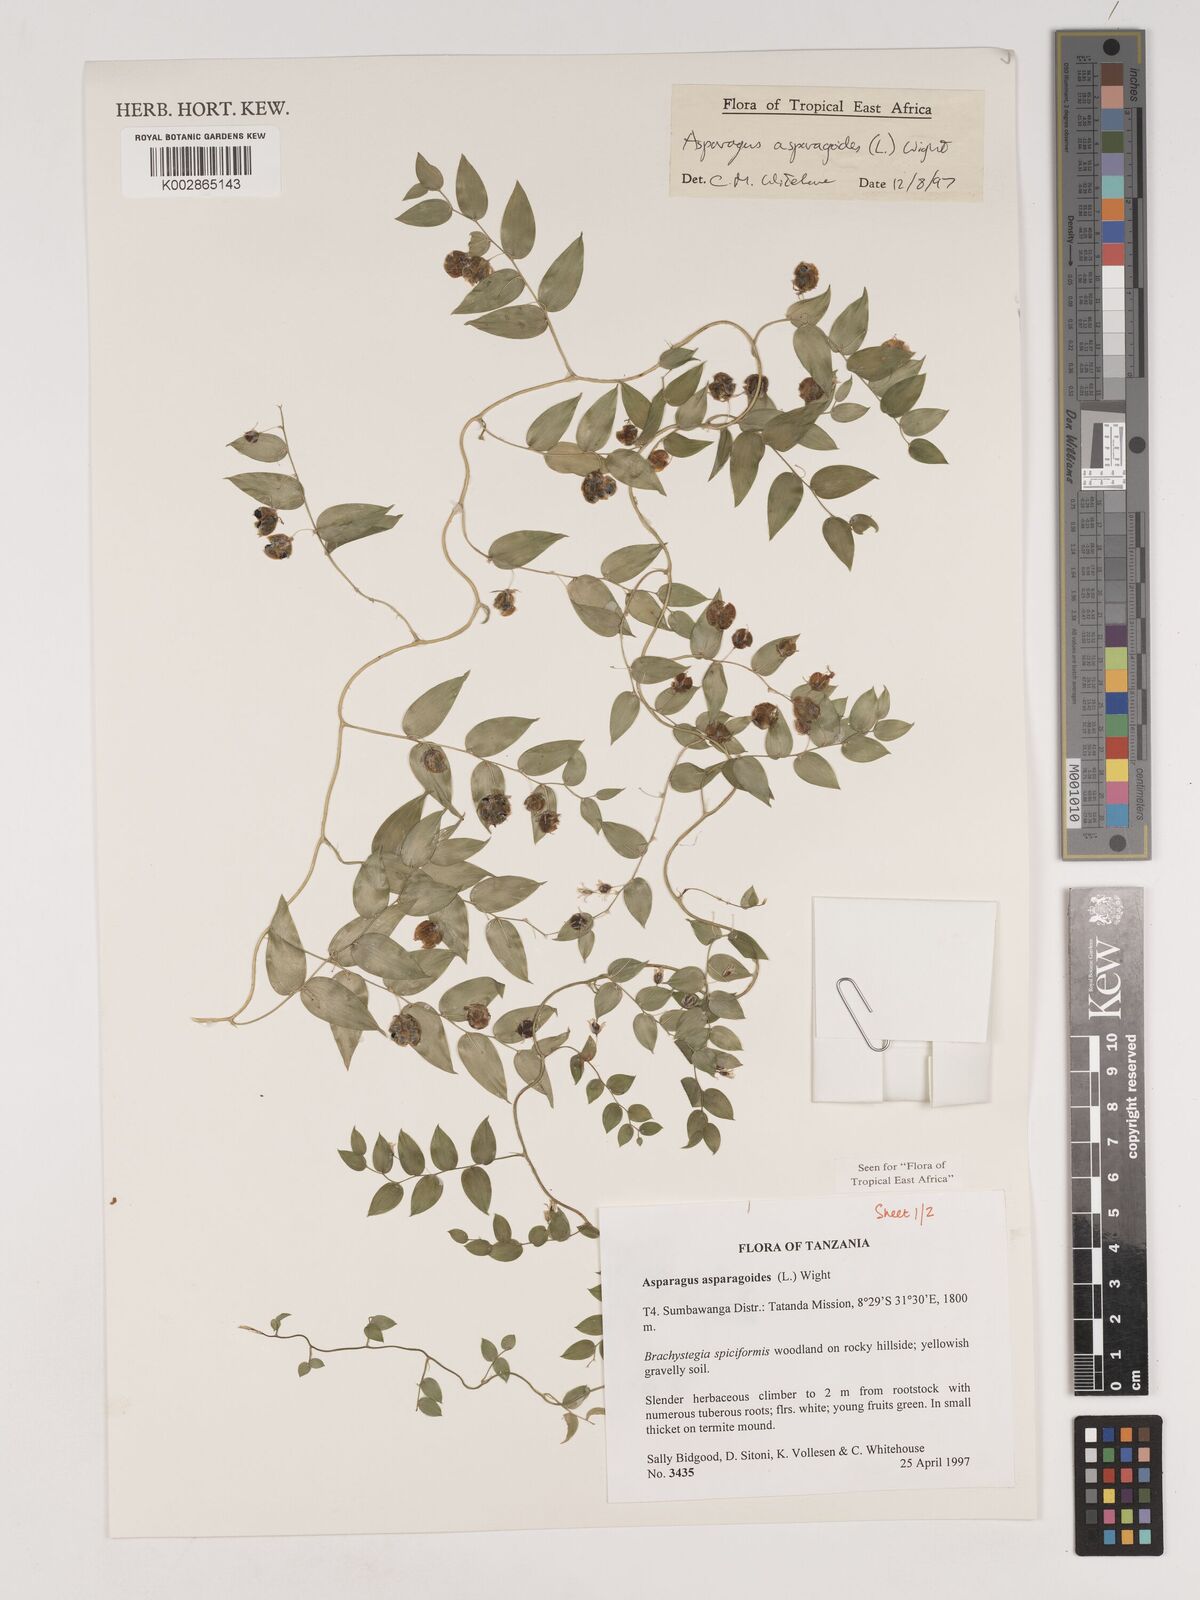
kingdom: Plantae
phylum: Tracheophyta
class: Liliopsida
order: Asparagales
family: Asparagaceae
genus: Asparagus
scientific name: Asparagus asparagoides
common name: African asparagus fern
